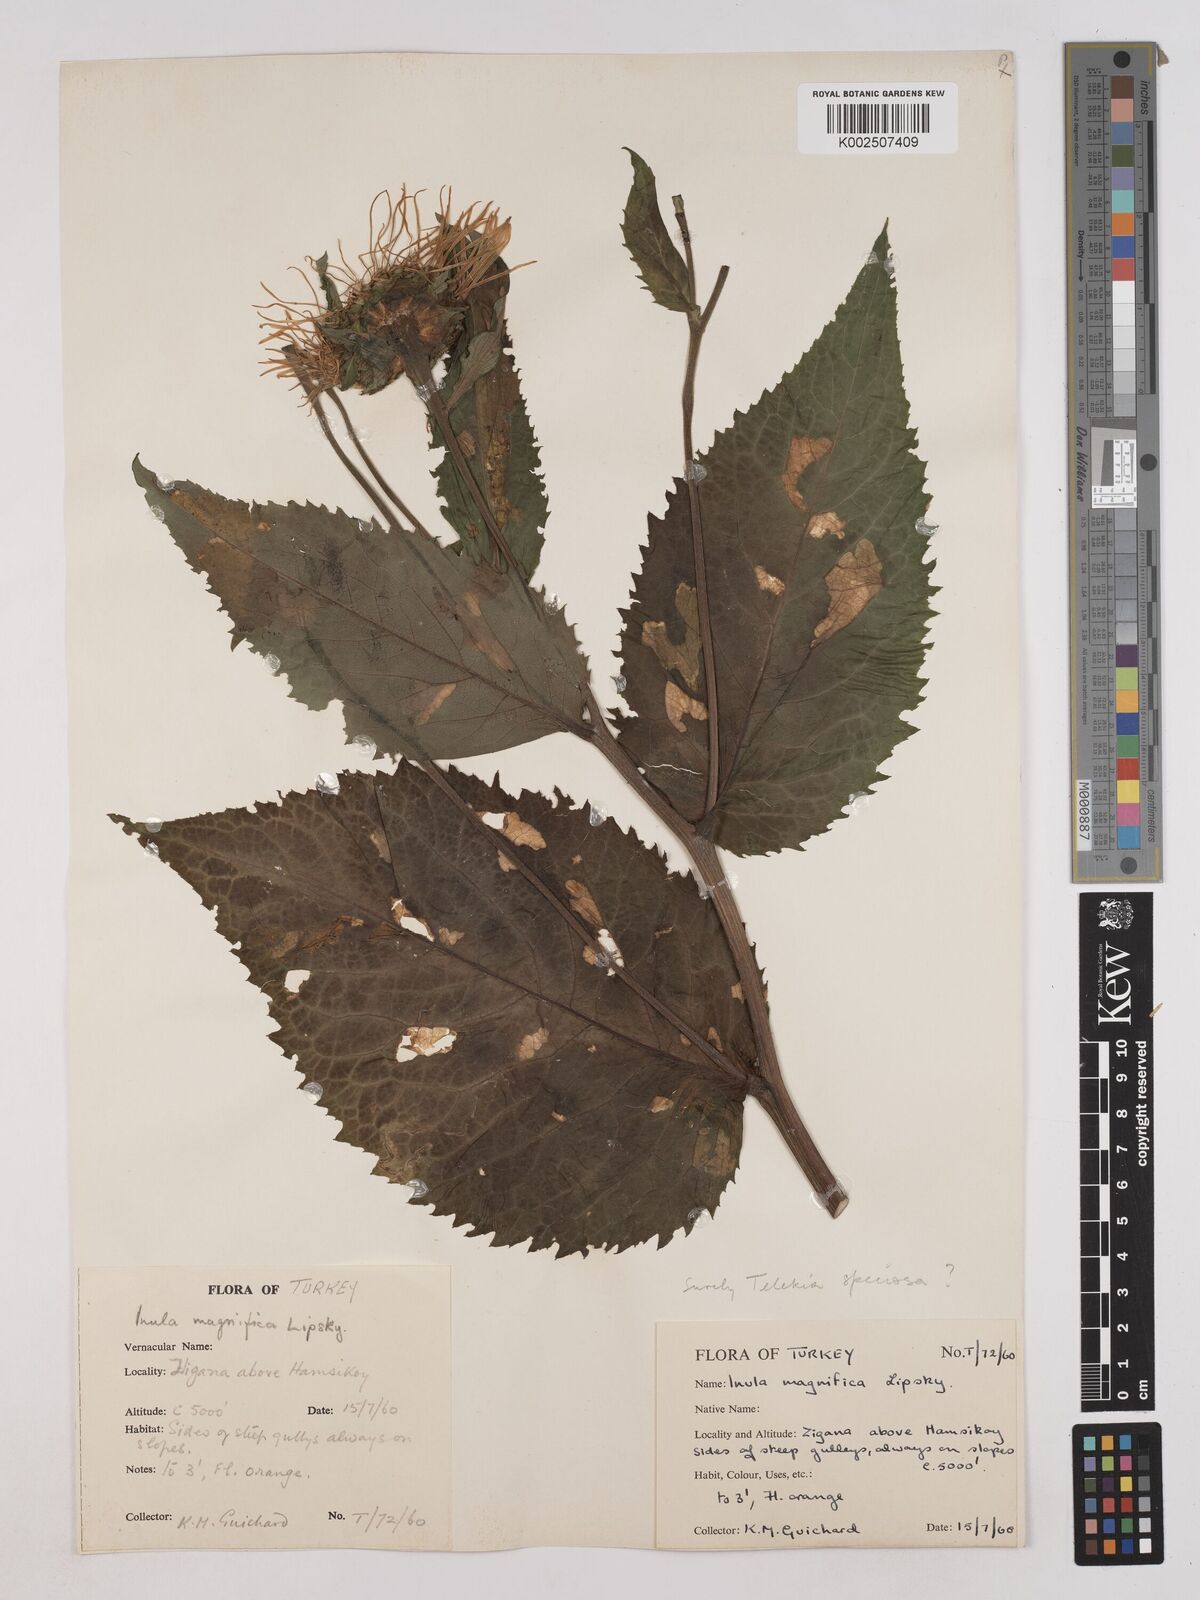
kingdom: Plantae
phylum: Tracheophyta
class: Magnoliopsida
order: Asterales
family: Asteraceae
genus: Inula
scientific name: Inula magnifica
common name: Giant fleabane
